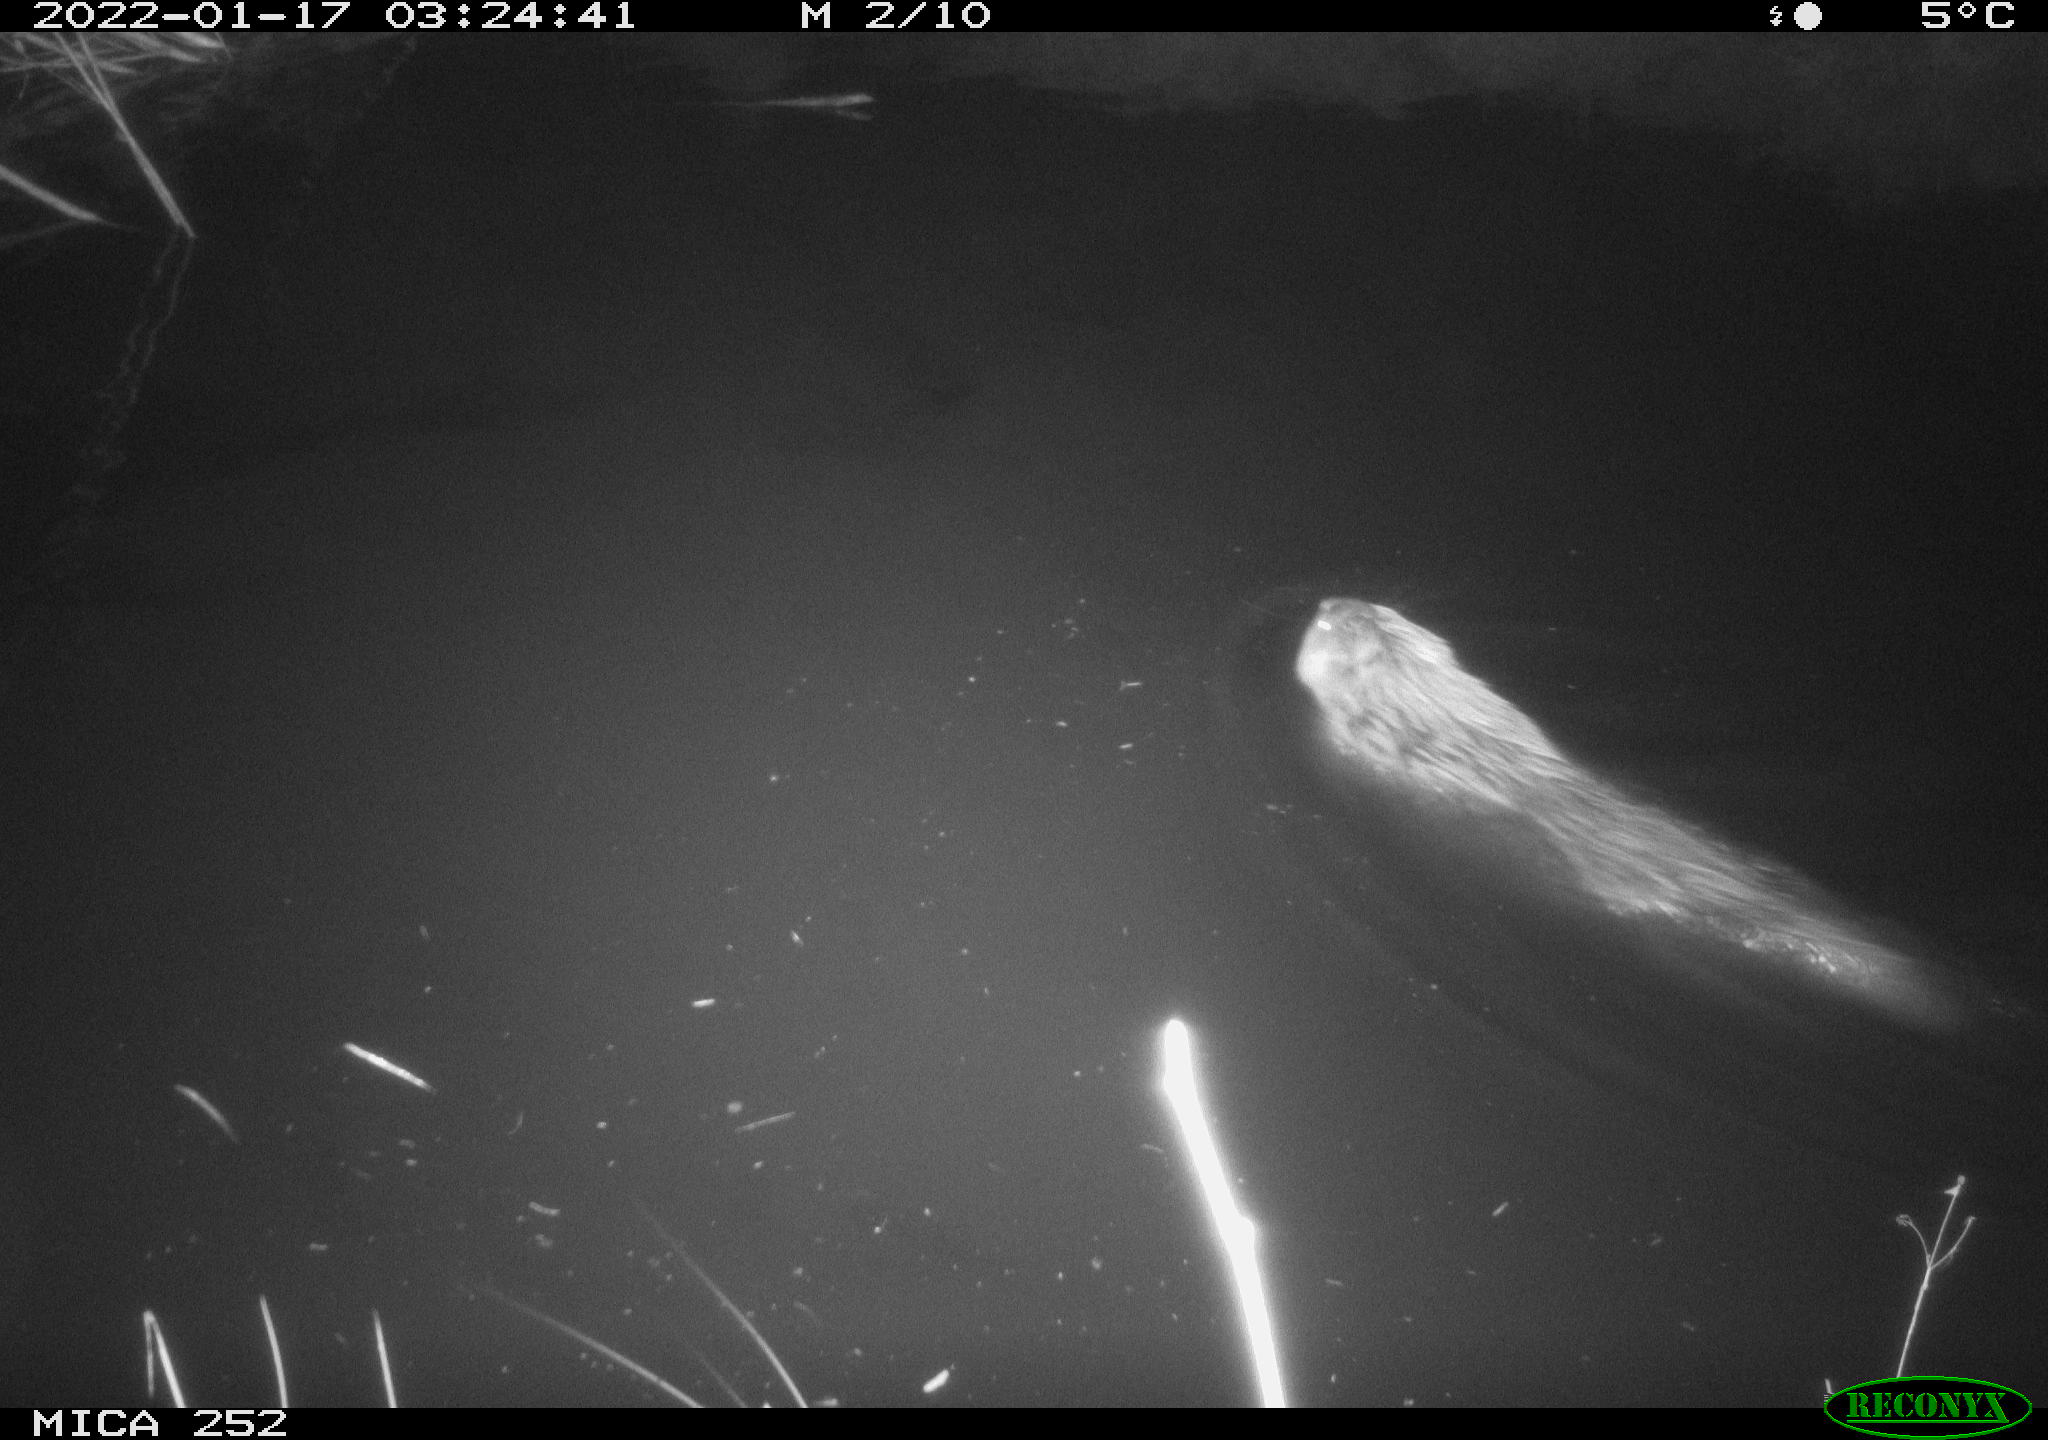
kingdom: Animalia
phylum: Chordata
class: Mammalia
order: Rodentia
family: Castoridae
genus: Castor
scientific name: Castor fiber
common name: Eurasian beaver
